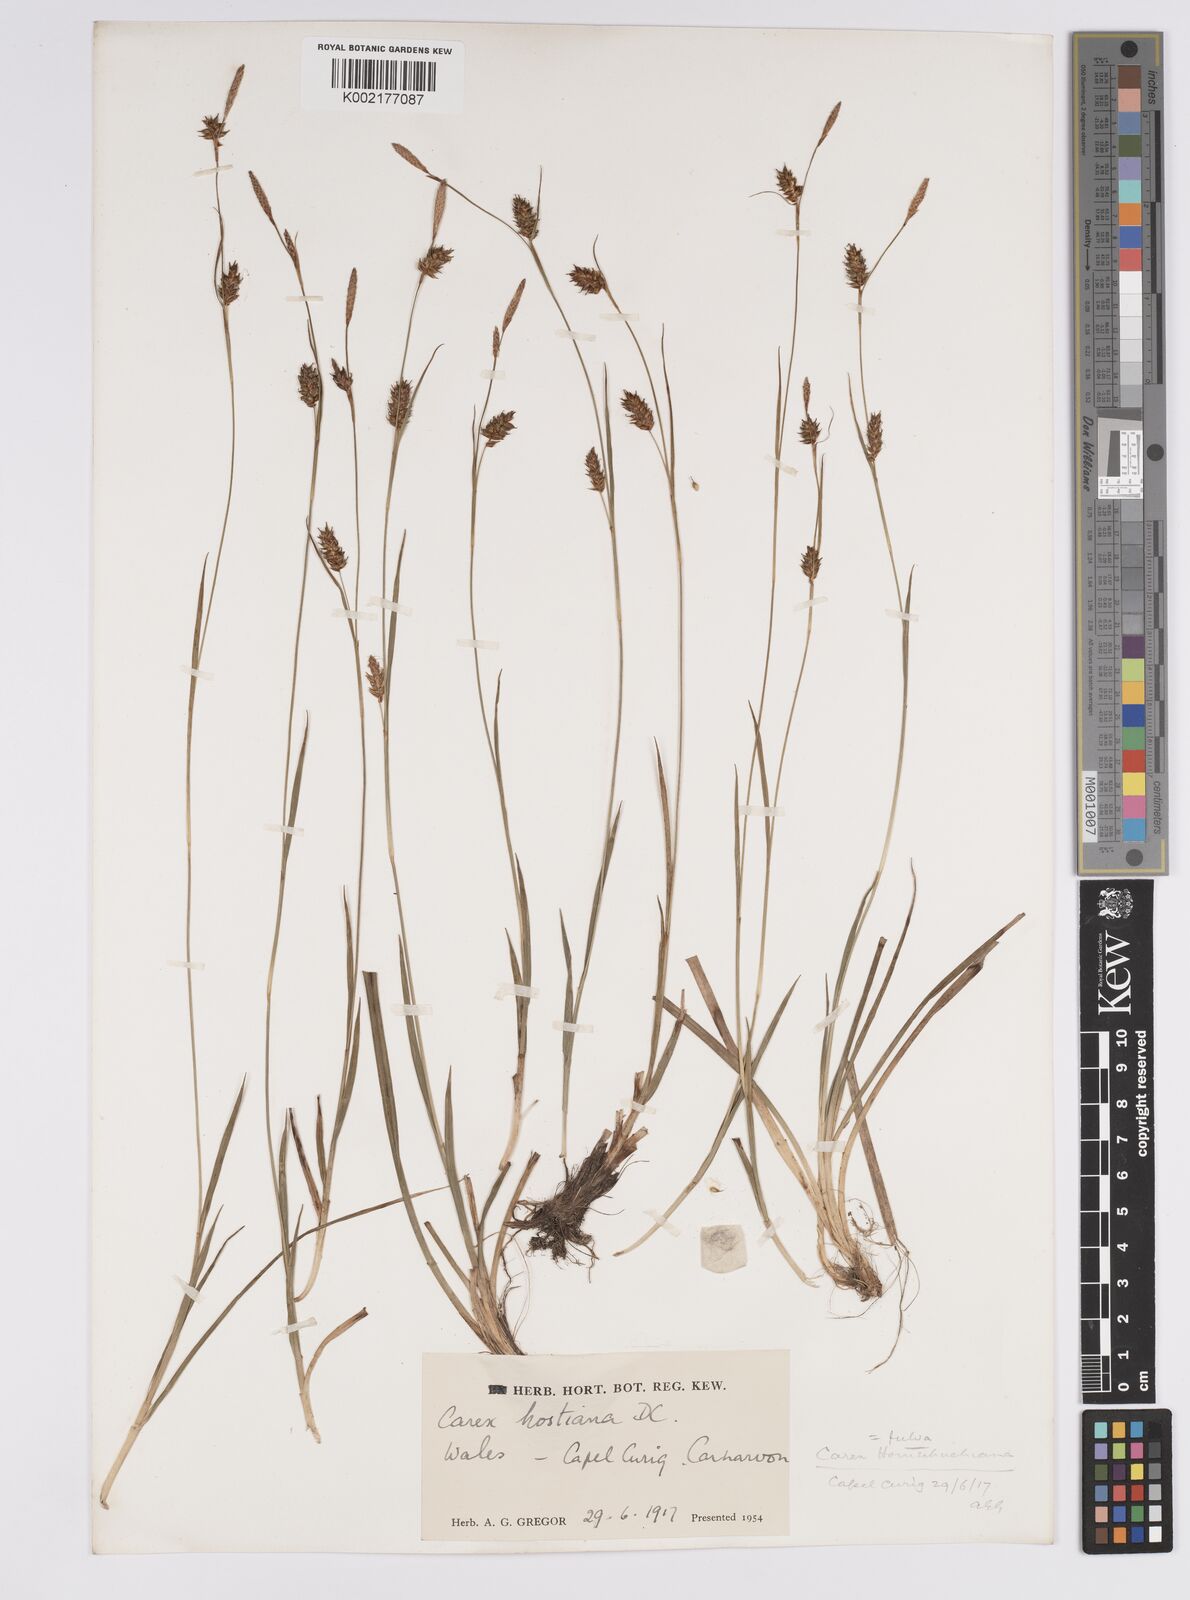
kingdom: Plantae
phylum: Tracheophyta
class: Liliopsida
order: Poales
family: Cyperaceae
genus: Carex
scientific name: Carex hostiana
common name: Tawny sedge
